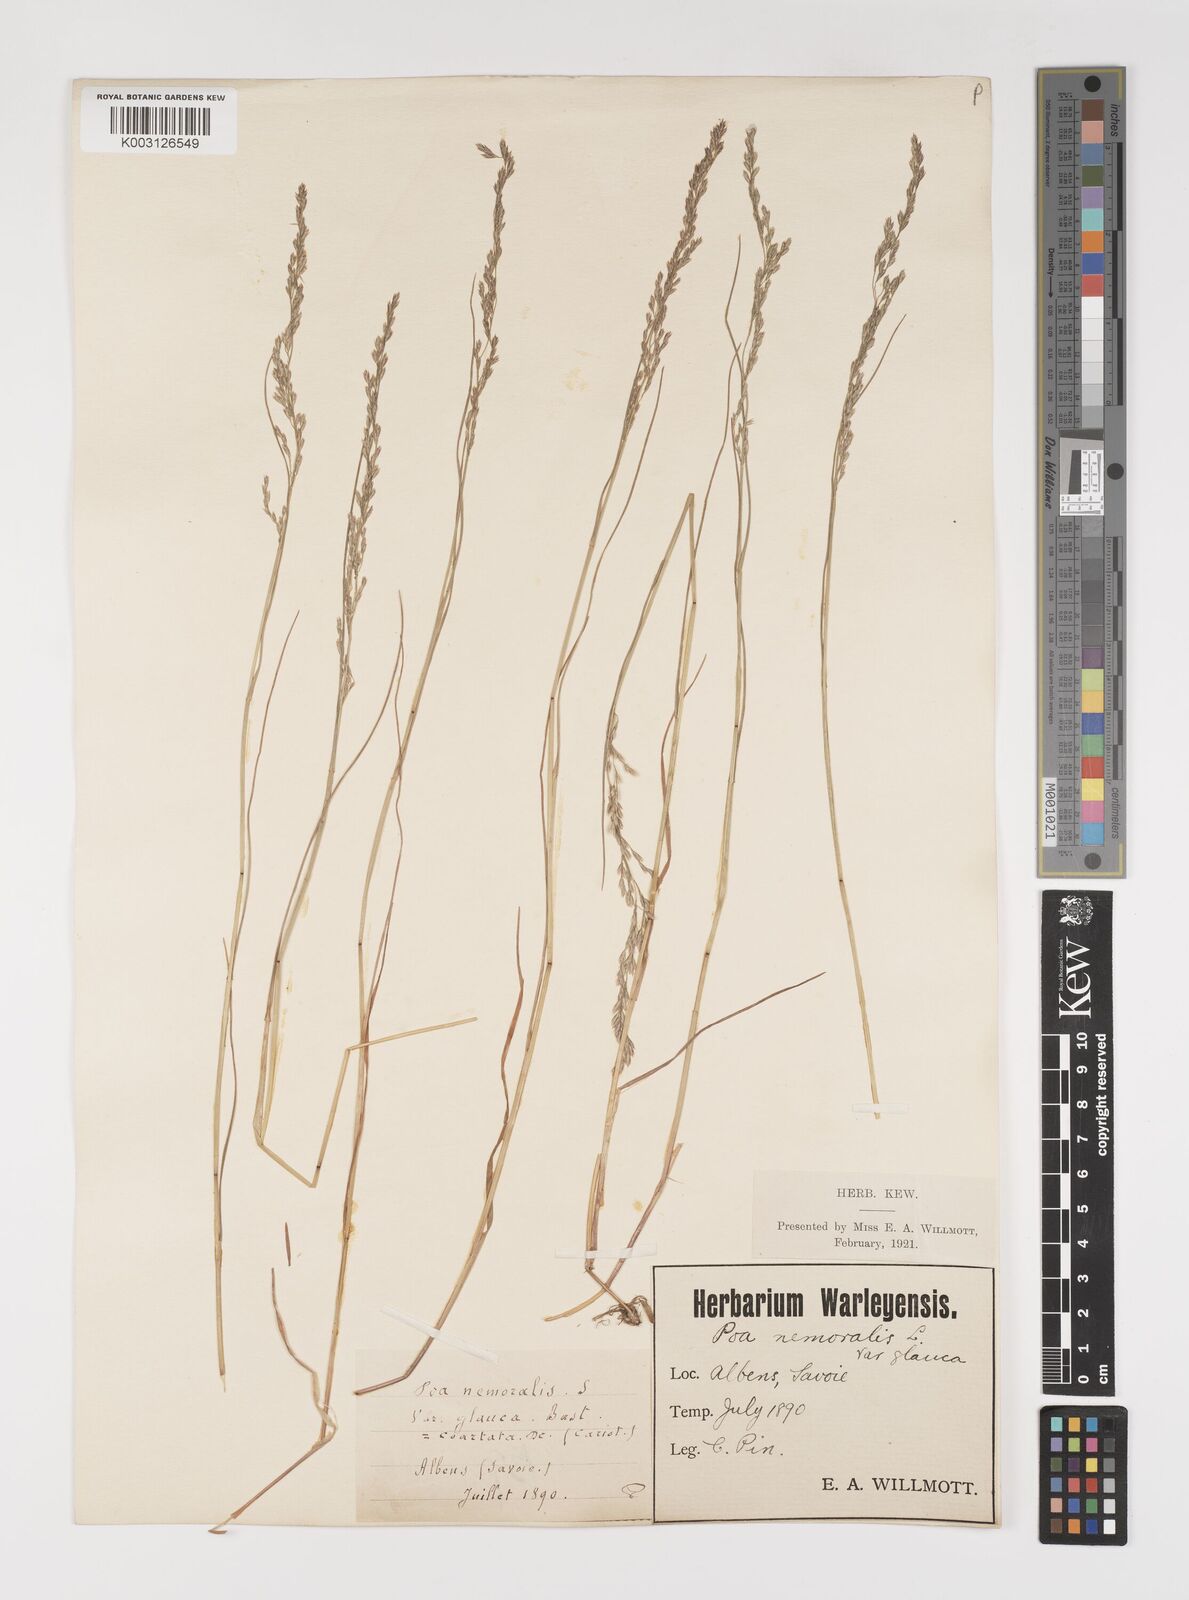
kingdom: Plantae
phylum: Tracheophyta
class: Liliopsida
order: Poales
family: Poaceae
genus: Poa
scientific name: Poa nemoralis
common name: Wood bluegrass
